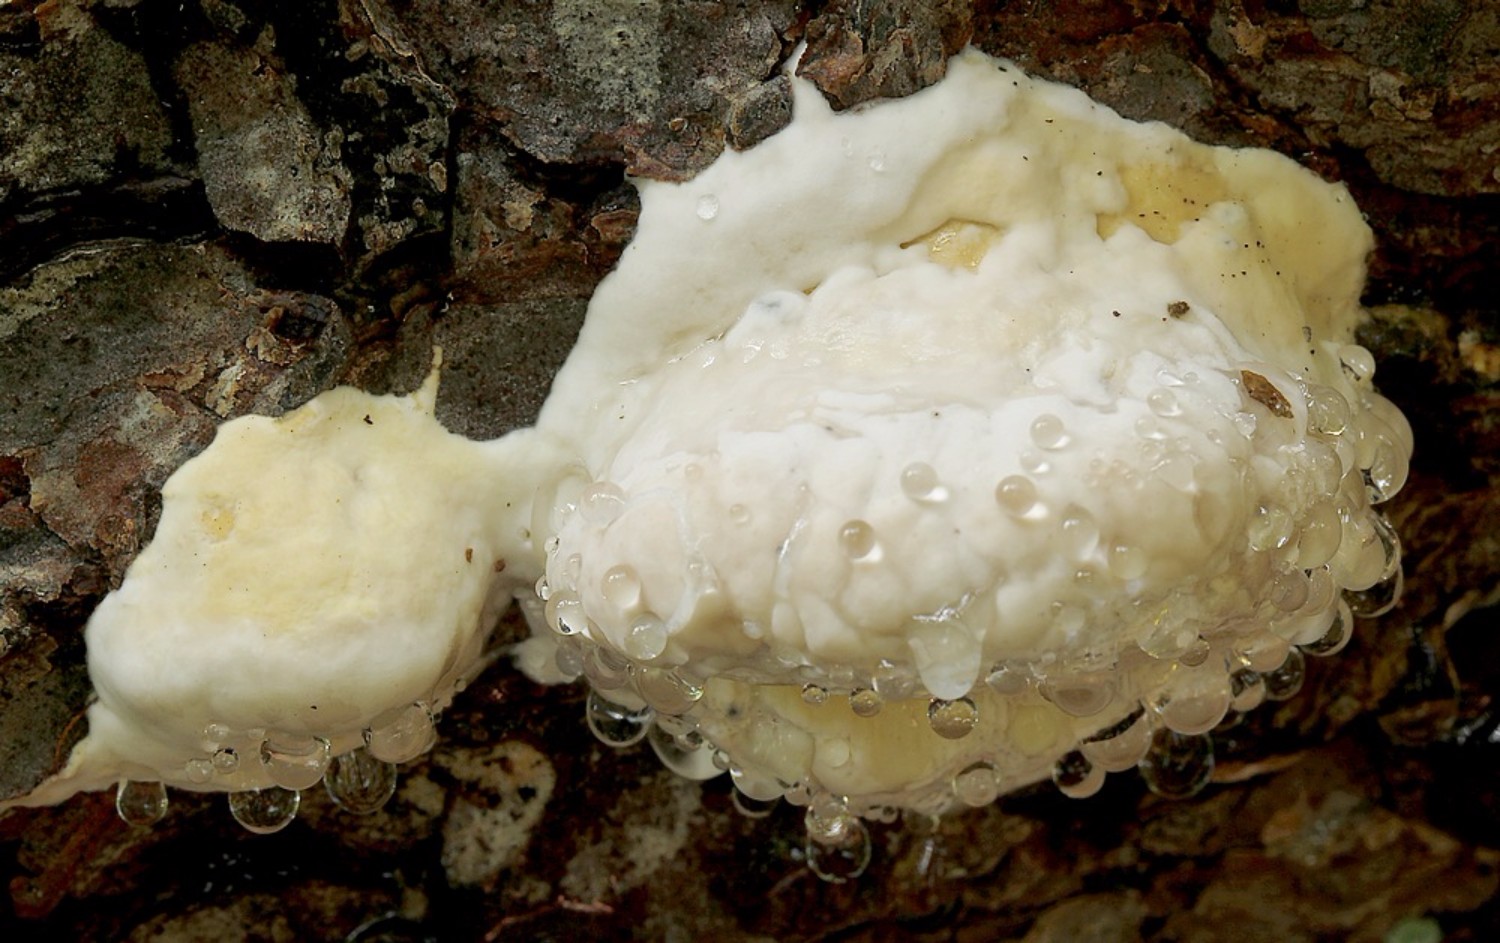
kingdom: Fungi
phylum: Basidiomycota
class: Agaricomycetes
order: Polyporales
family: Fomitopsidaceae
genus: Fomitopsis
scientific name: Fomitopsis pinicola
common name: randbæltet hovporesvamp
